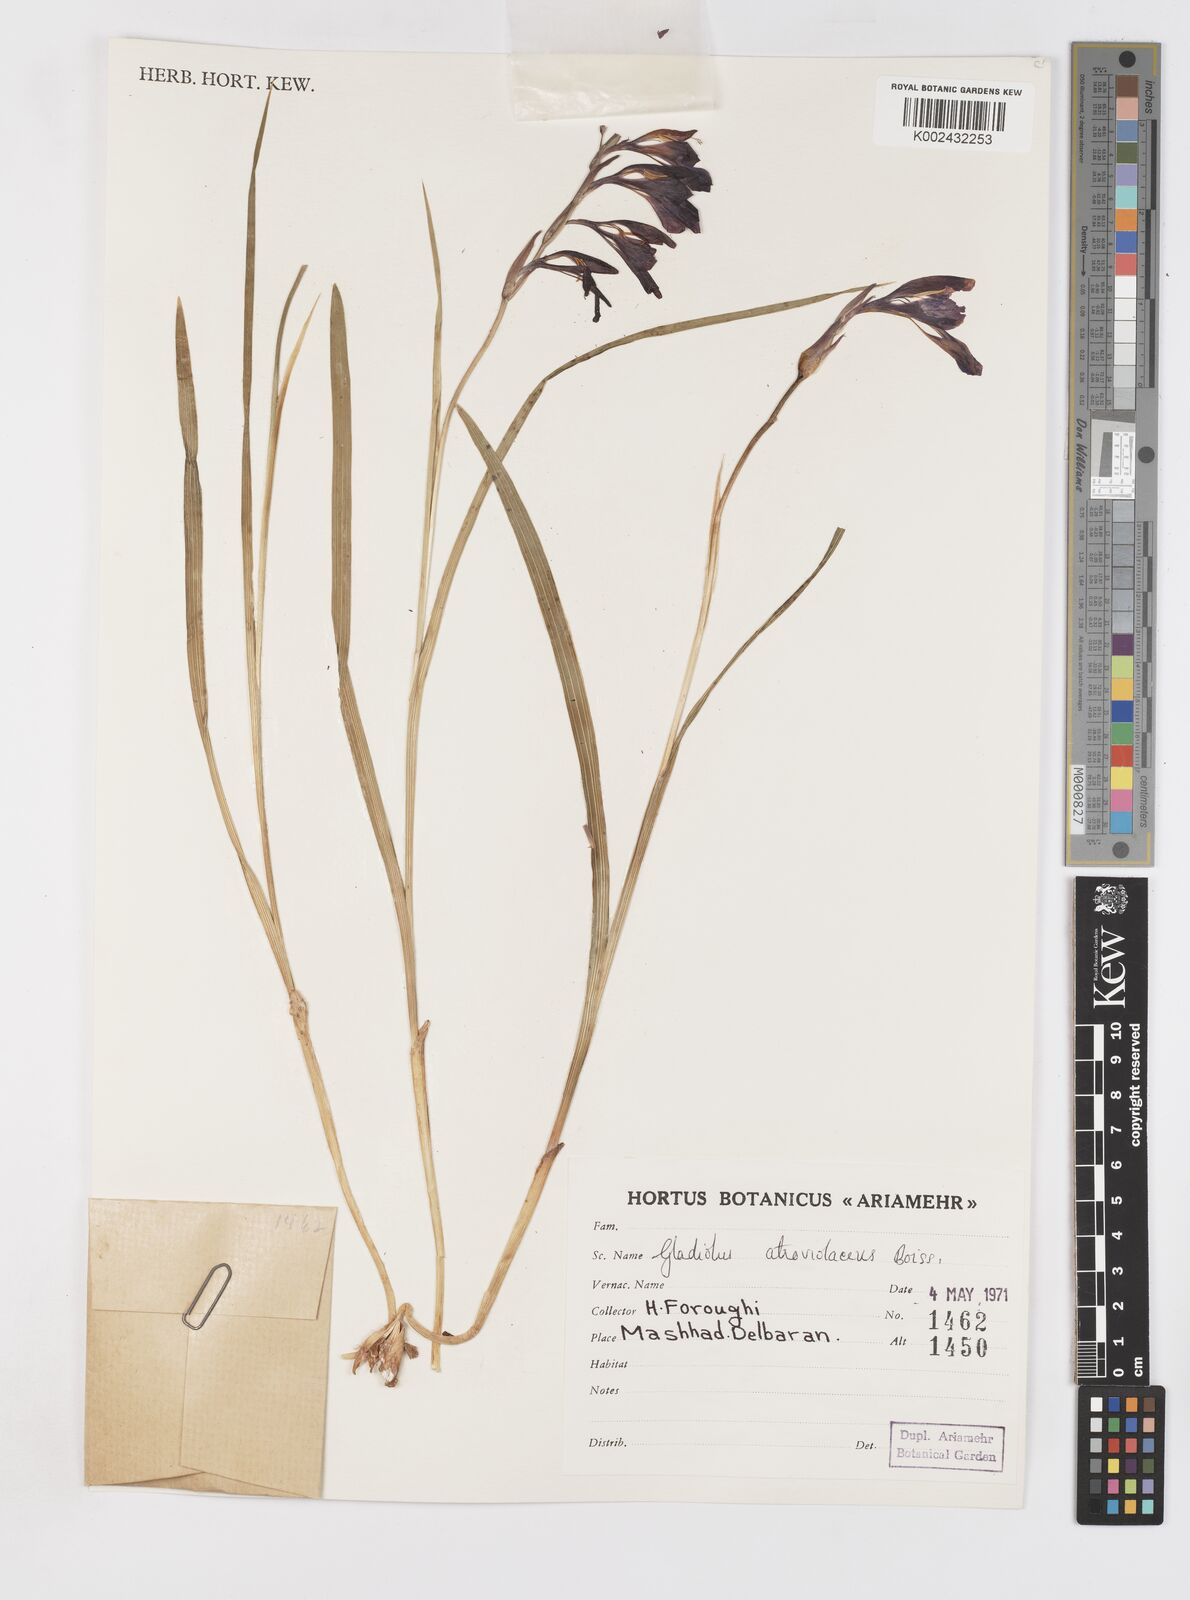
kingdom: Plantae
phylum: Tracheophyta
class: Liliopsida
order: Asparagales
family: Iridaceae
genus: Gladiolus
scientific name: Gladiolus atroviolaceus
